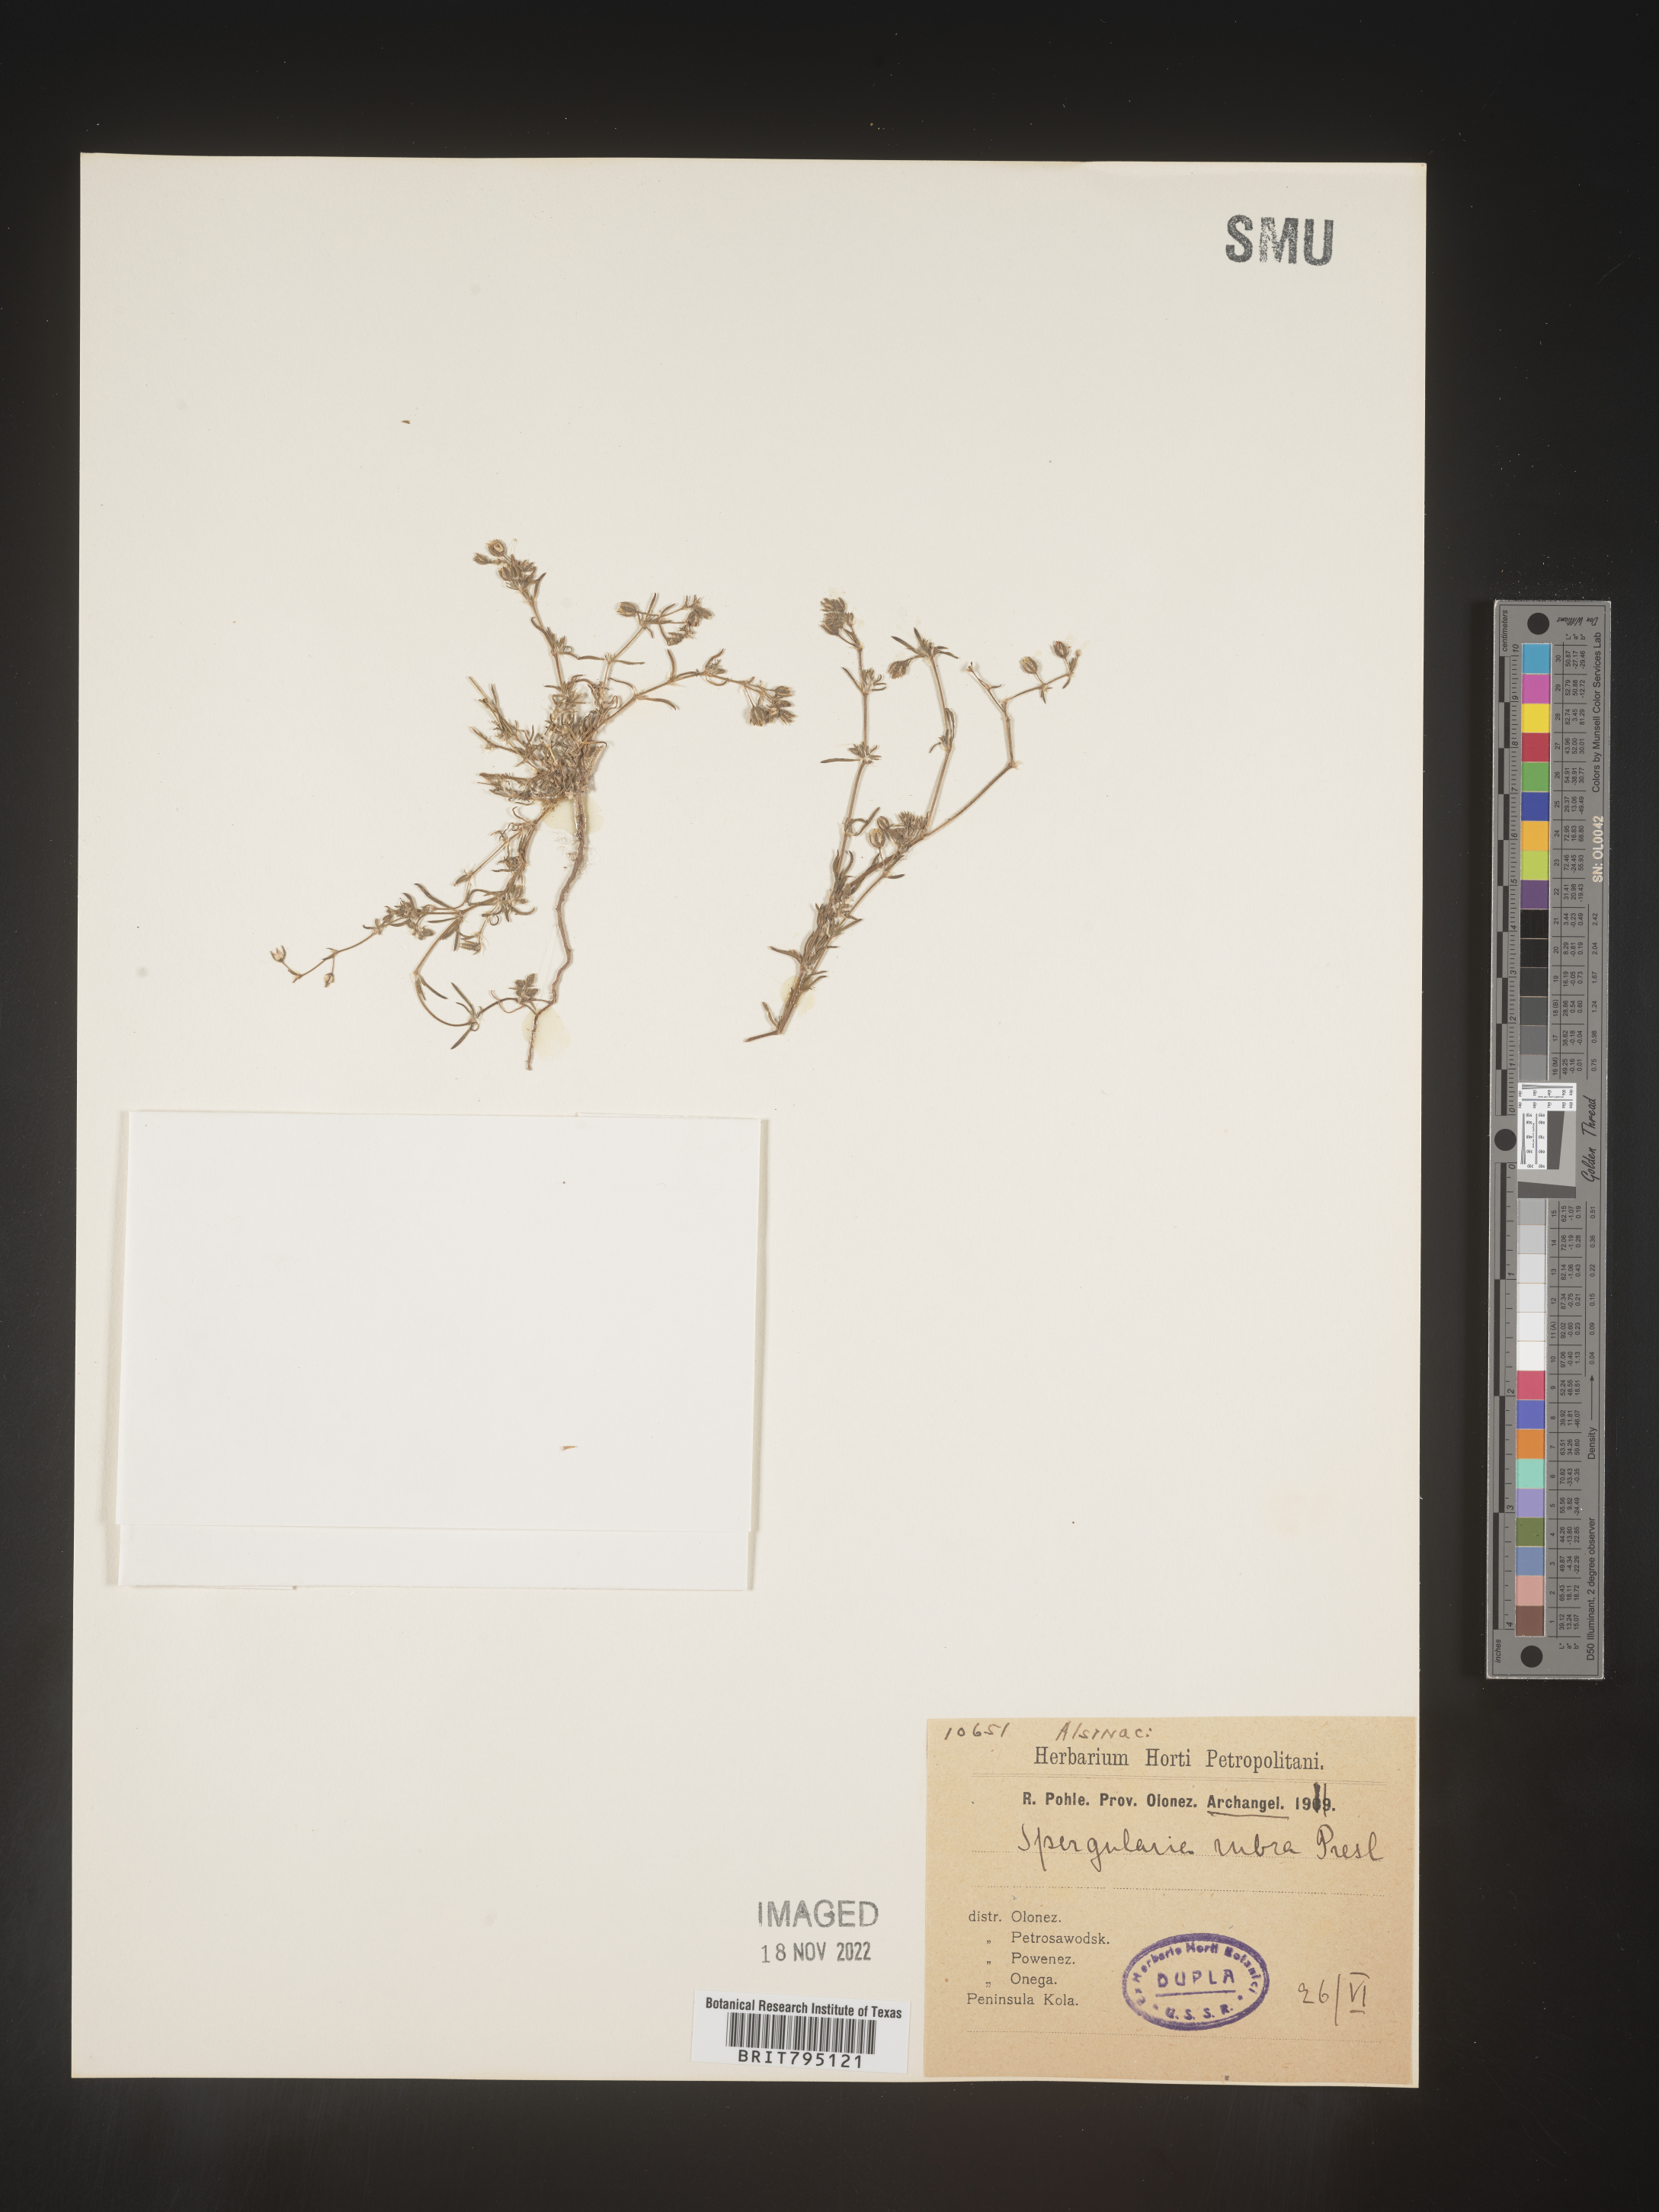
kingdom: Plantae
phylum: Tracheophyta
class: Magnoliopsida
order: Caryophyllales
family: Caryophyllaceae
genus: Spergularia
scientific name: Spergularia rubra
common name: Red sand-spurrey
